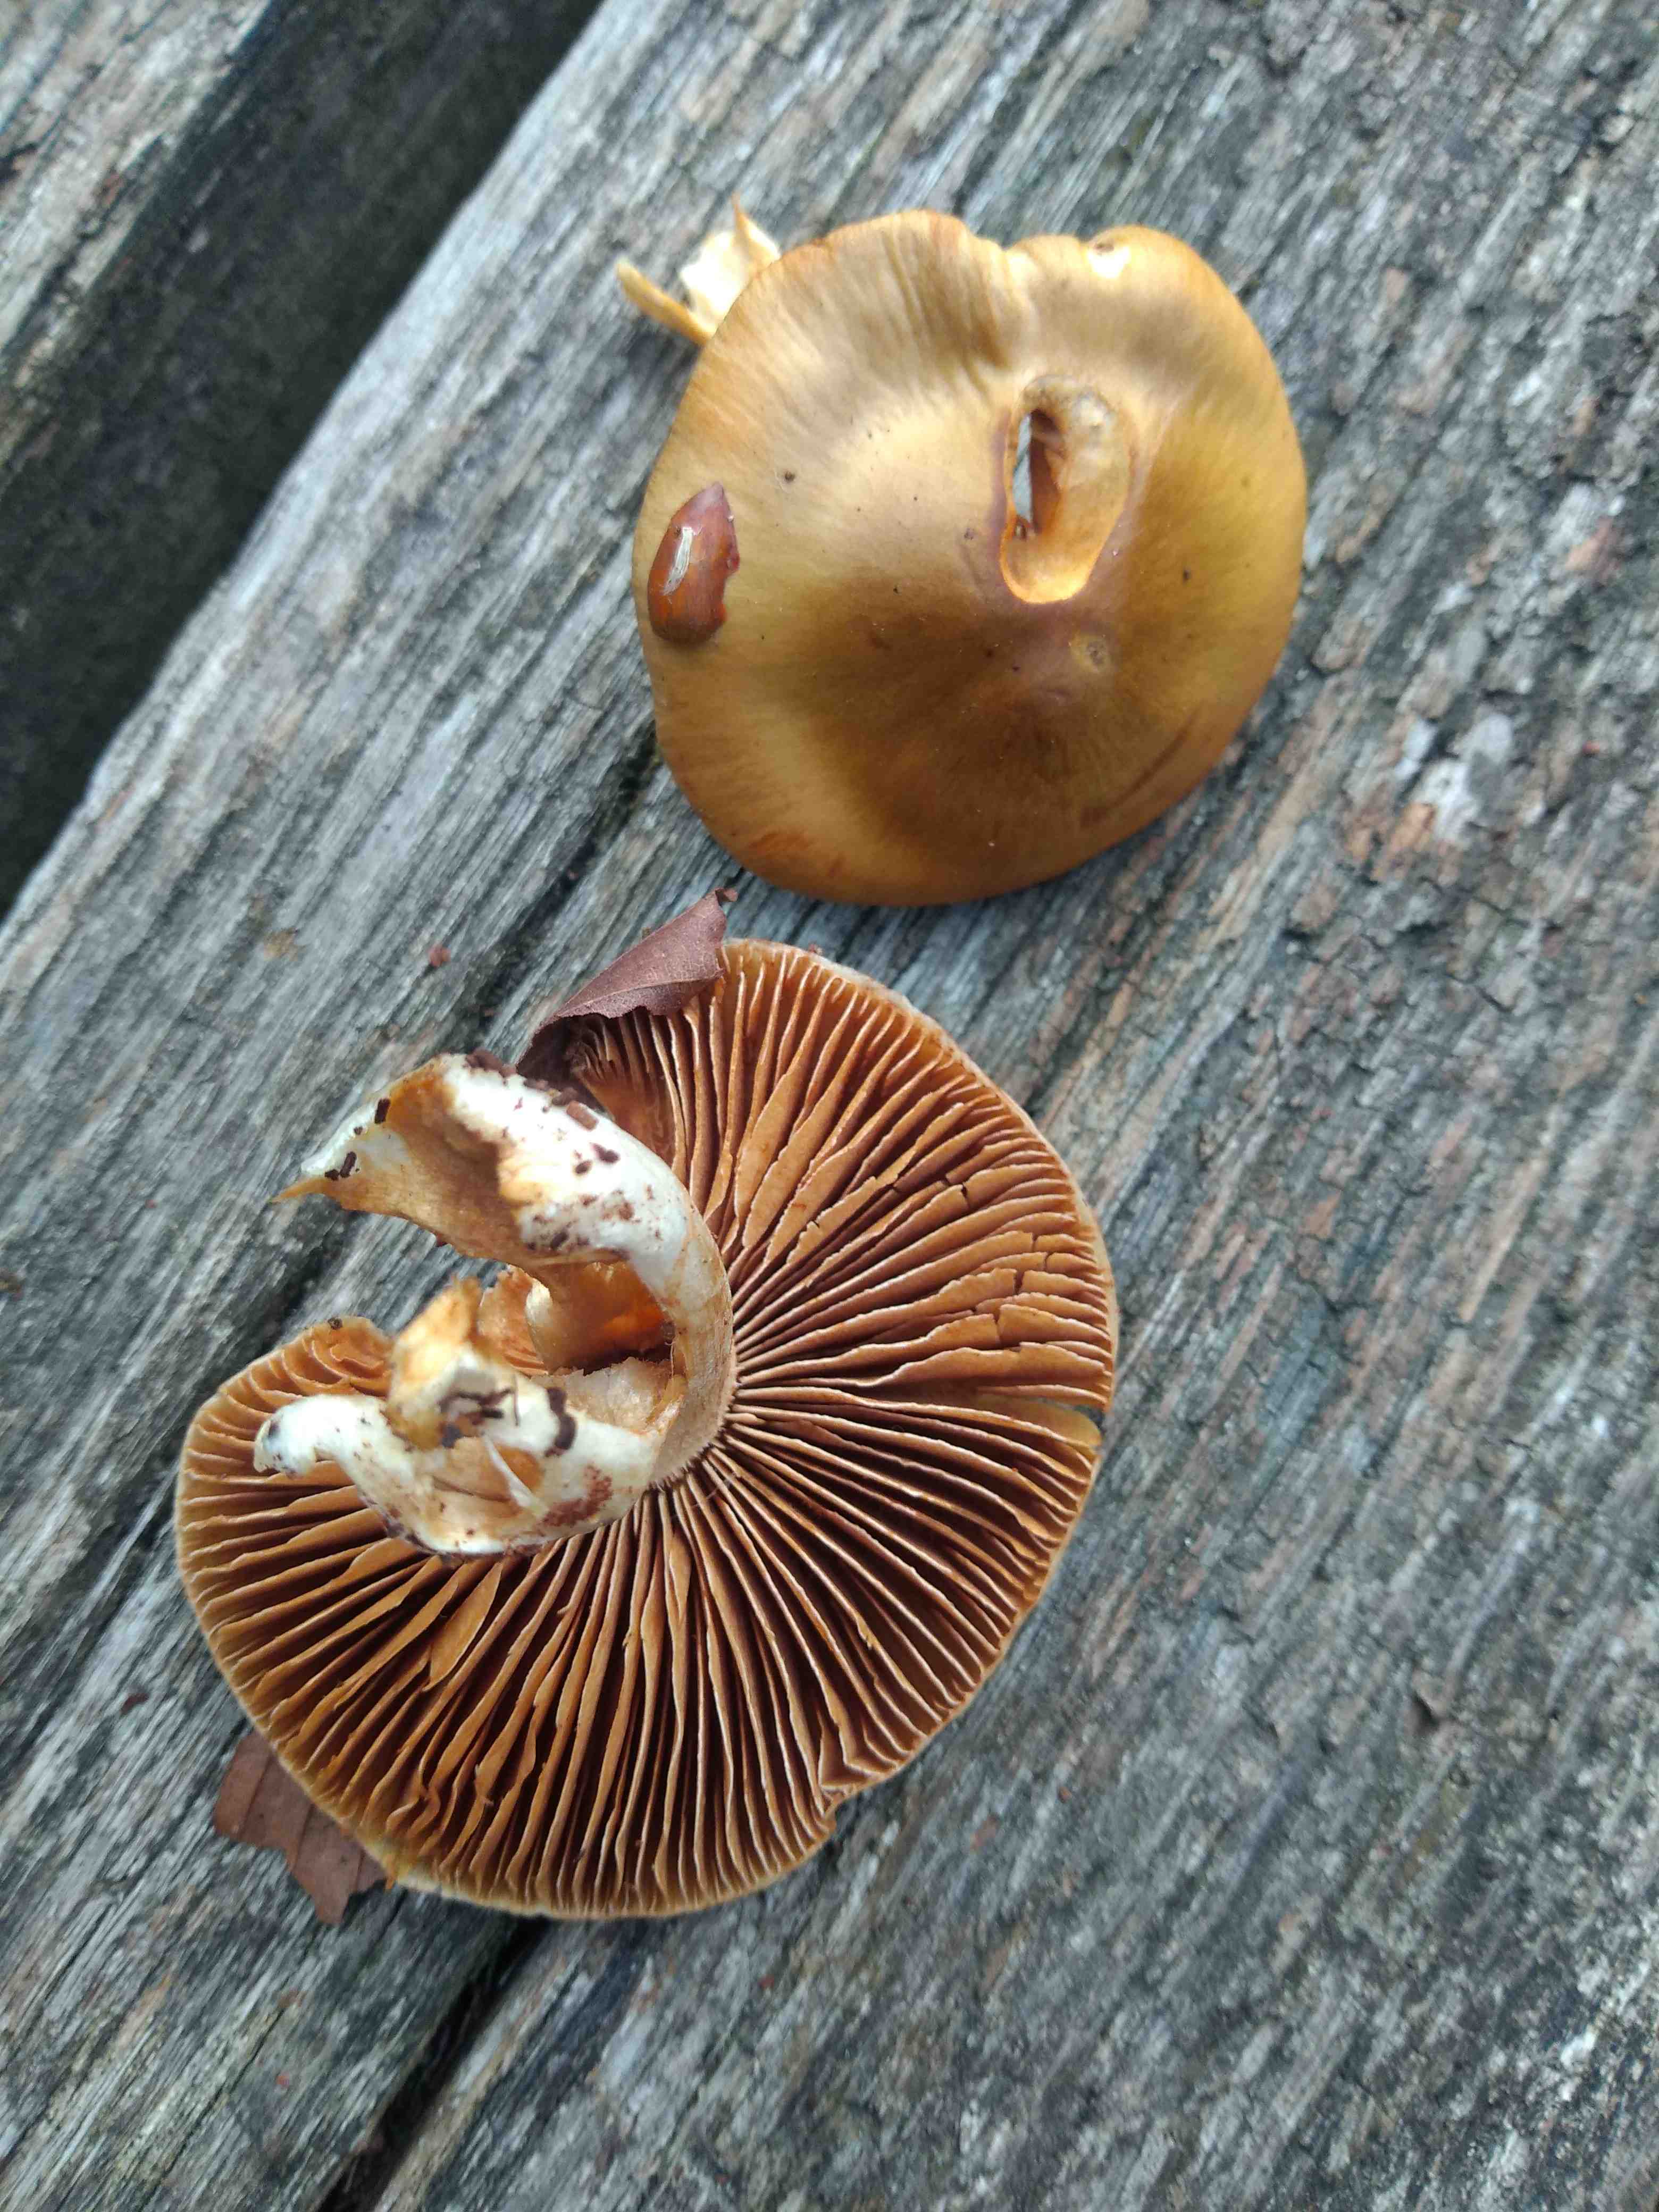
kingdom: Fungi
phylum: Basidiomycota
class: Agaricomycetes
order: Agaricales
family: Cortinariaceae
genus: Cortinarius
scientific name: Cortinarius livido-ochraceus
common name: halvhøj slørhat
